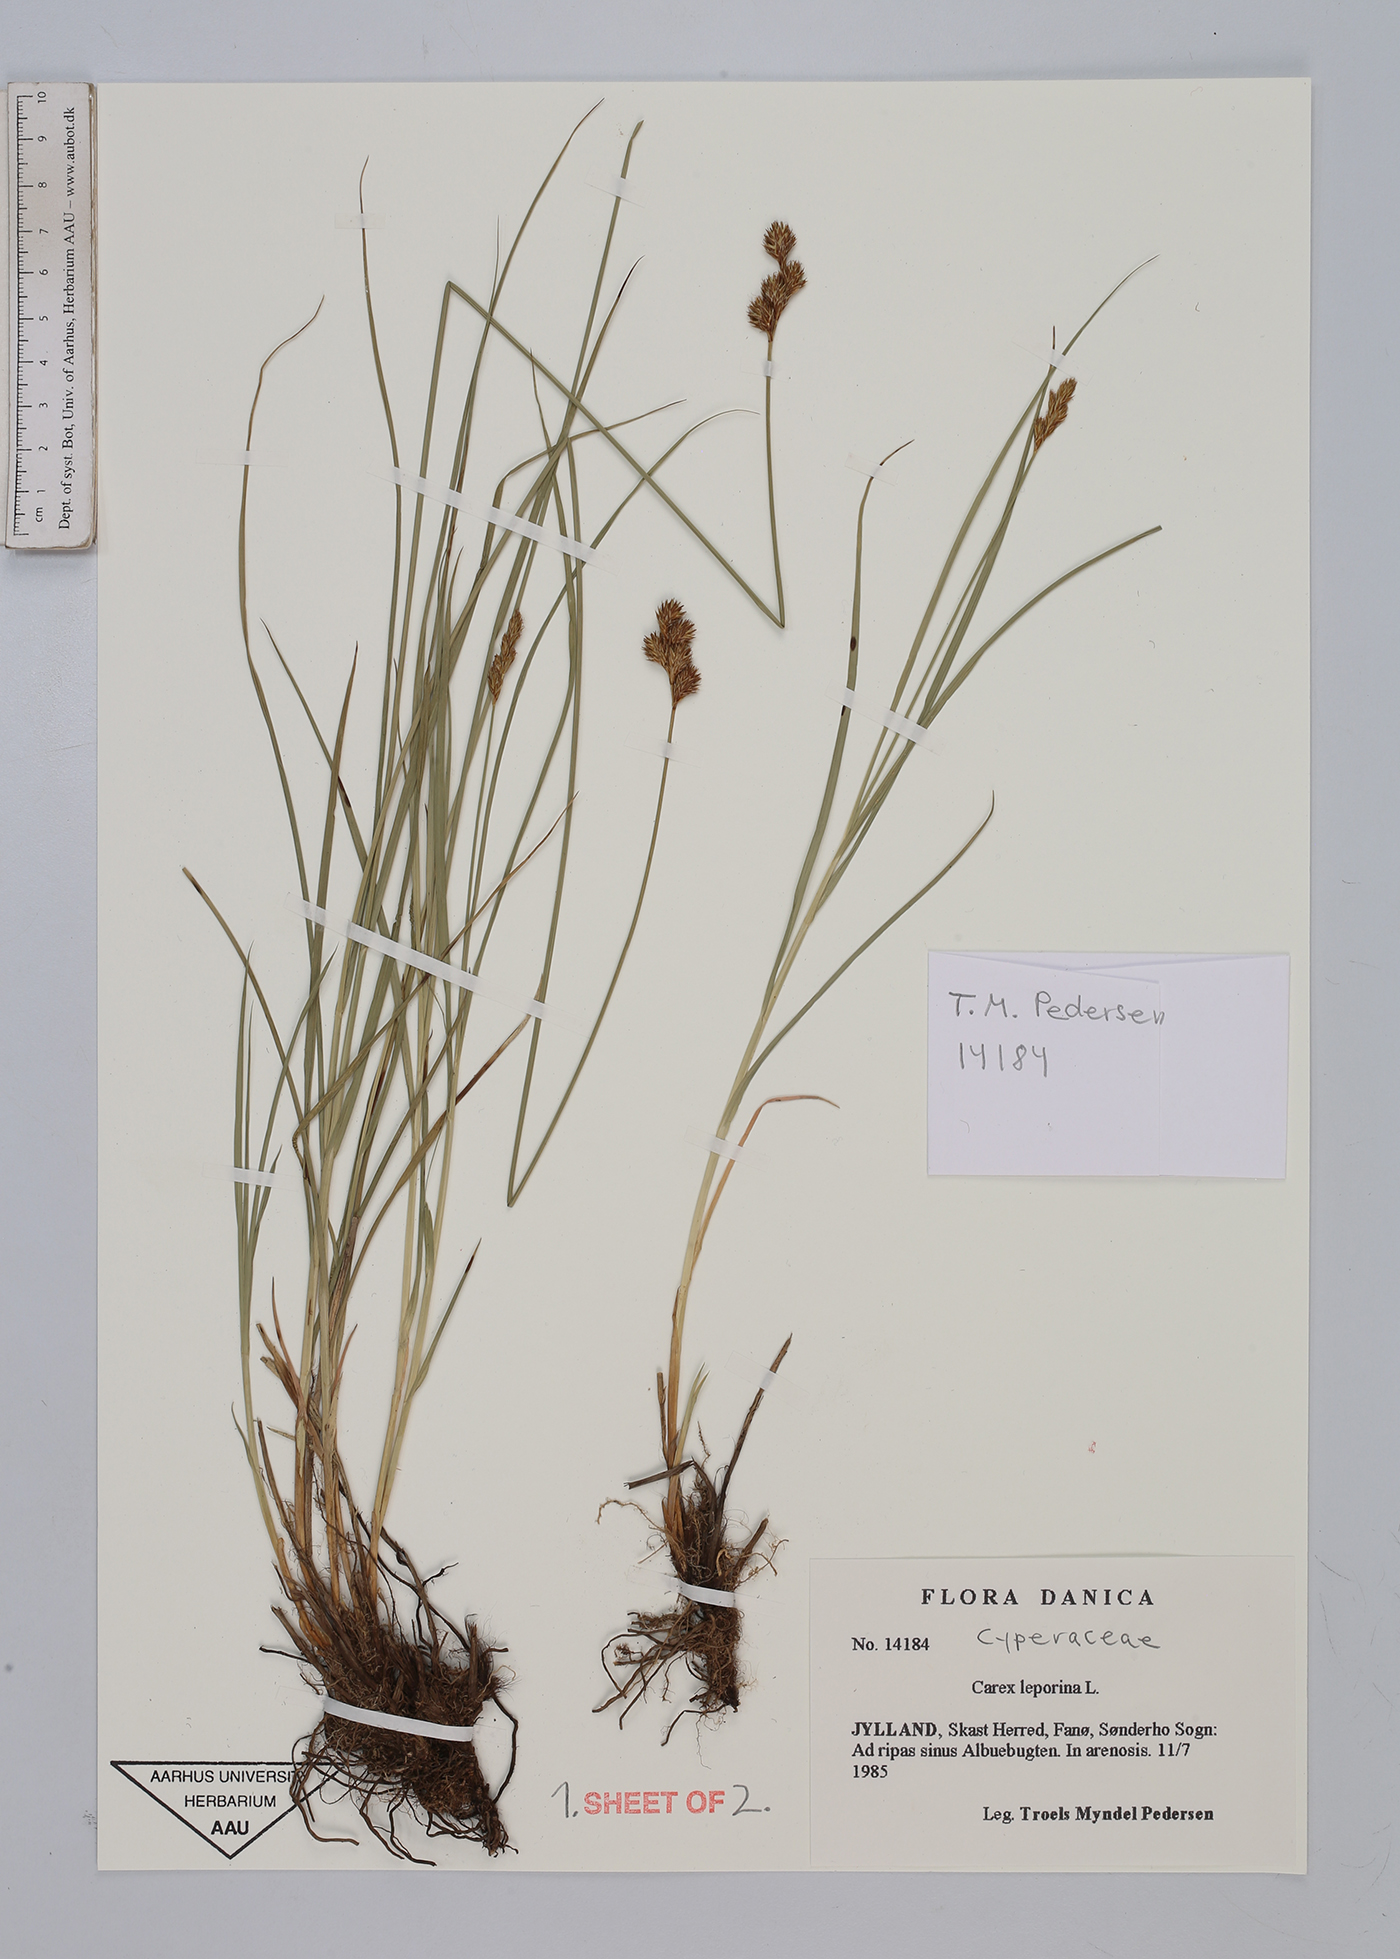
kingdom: Plantae
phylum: Tracheophyta
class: Liliopsida
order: Poales
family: Cyperaceae
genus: Carex
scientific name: Carex leporina
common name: Oval sedge
